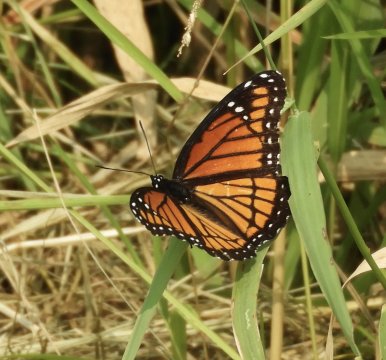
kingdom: Animalia
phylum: Arthropoda
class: Insecta
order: Lepidoptera
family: Nymphalidae
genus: Limenitis
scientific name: Limenitis archippus
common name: Viceroy
